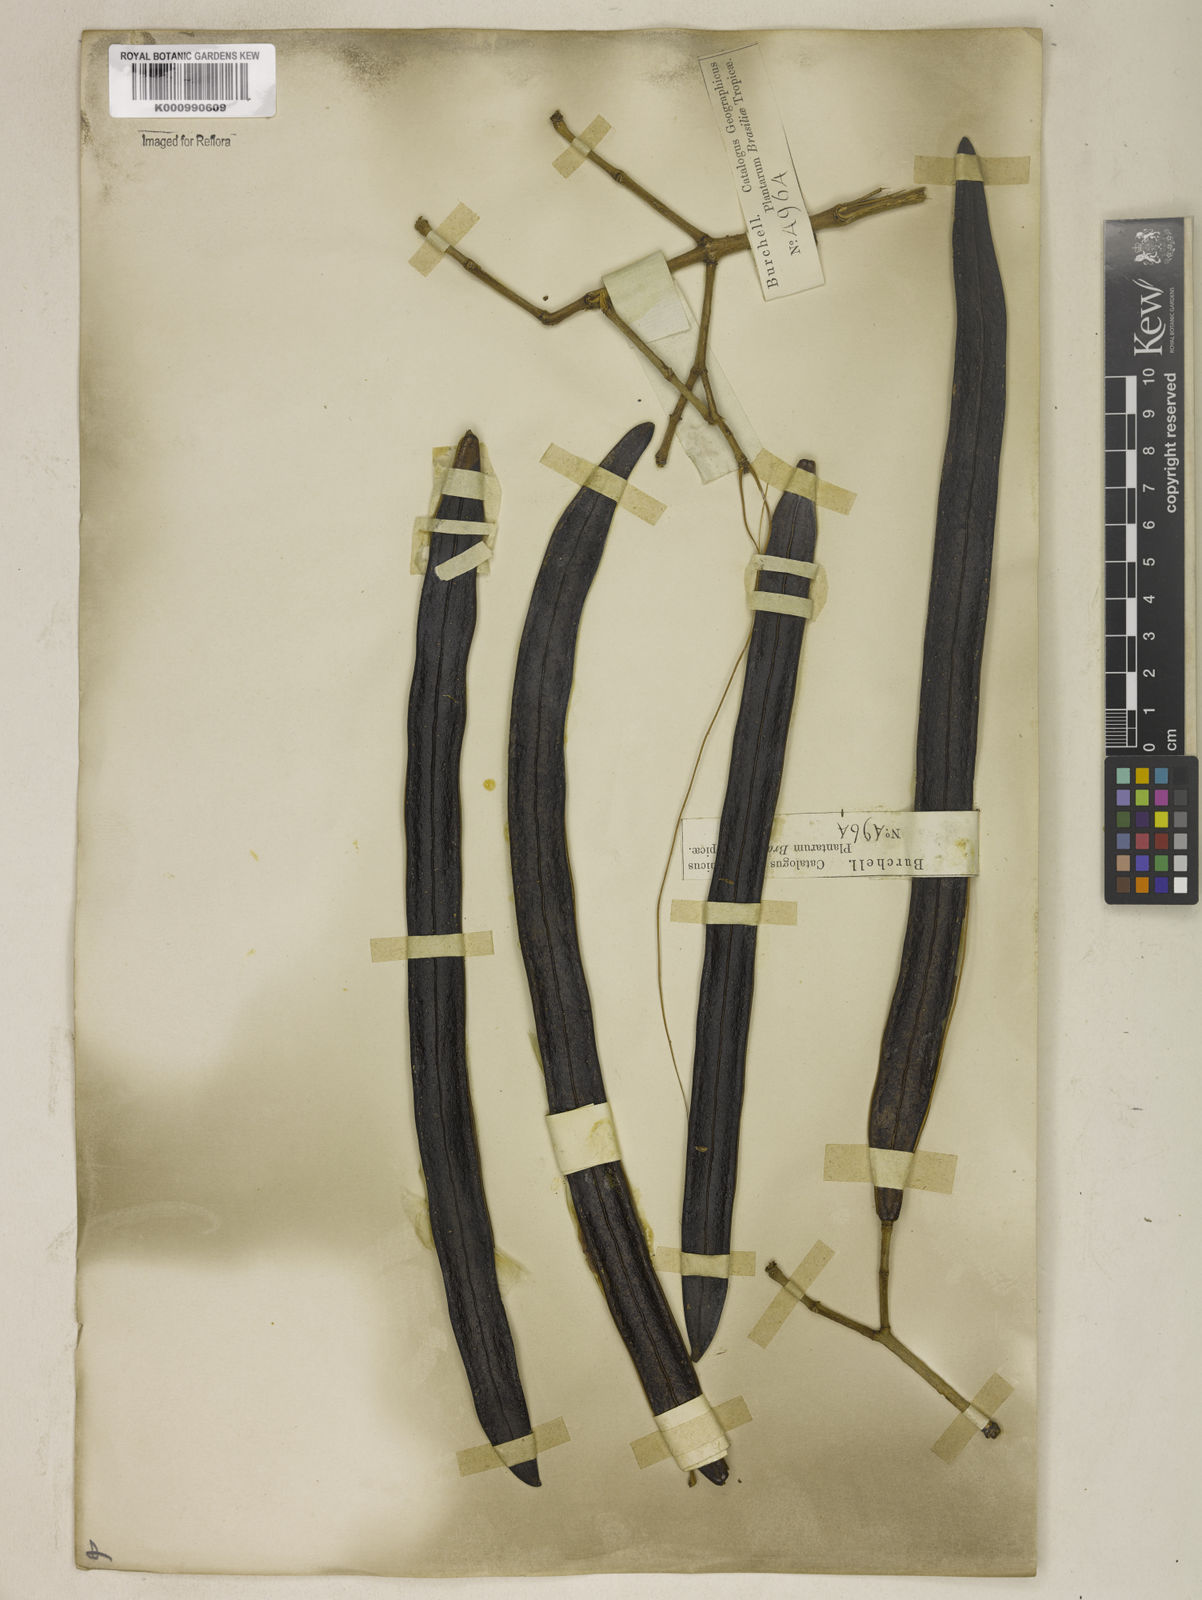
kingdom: Plantae
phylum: Tracheophyta
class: Magnoliopsida
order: Lamiales
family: Bignoniaceae
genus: Fridericia
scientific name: Fridericia speciosa
